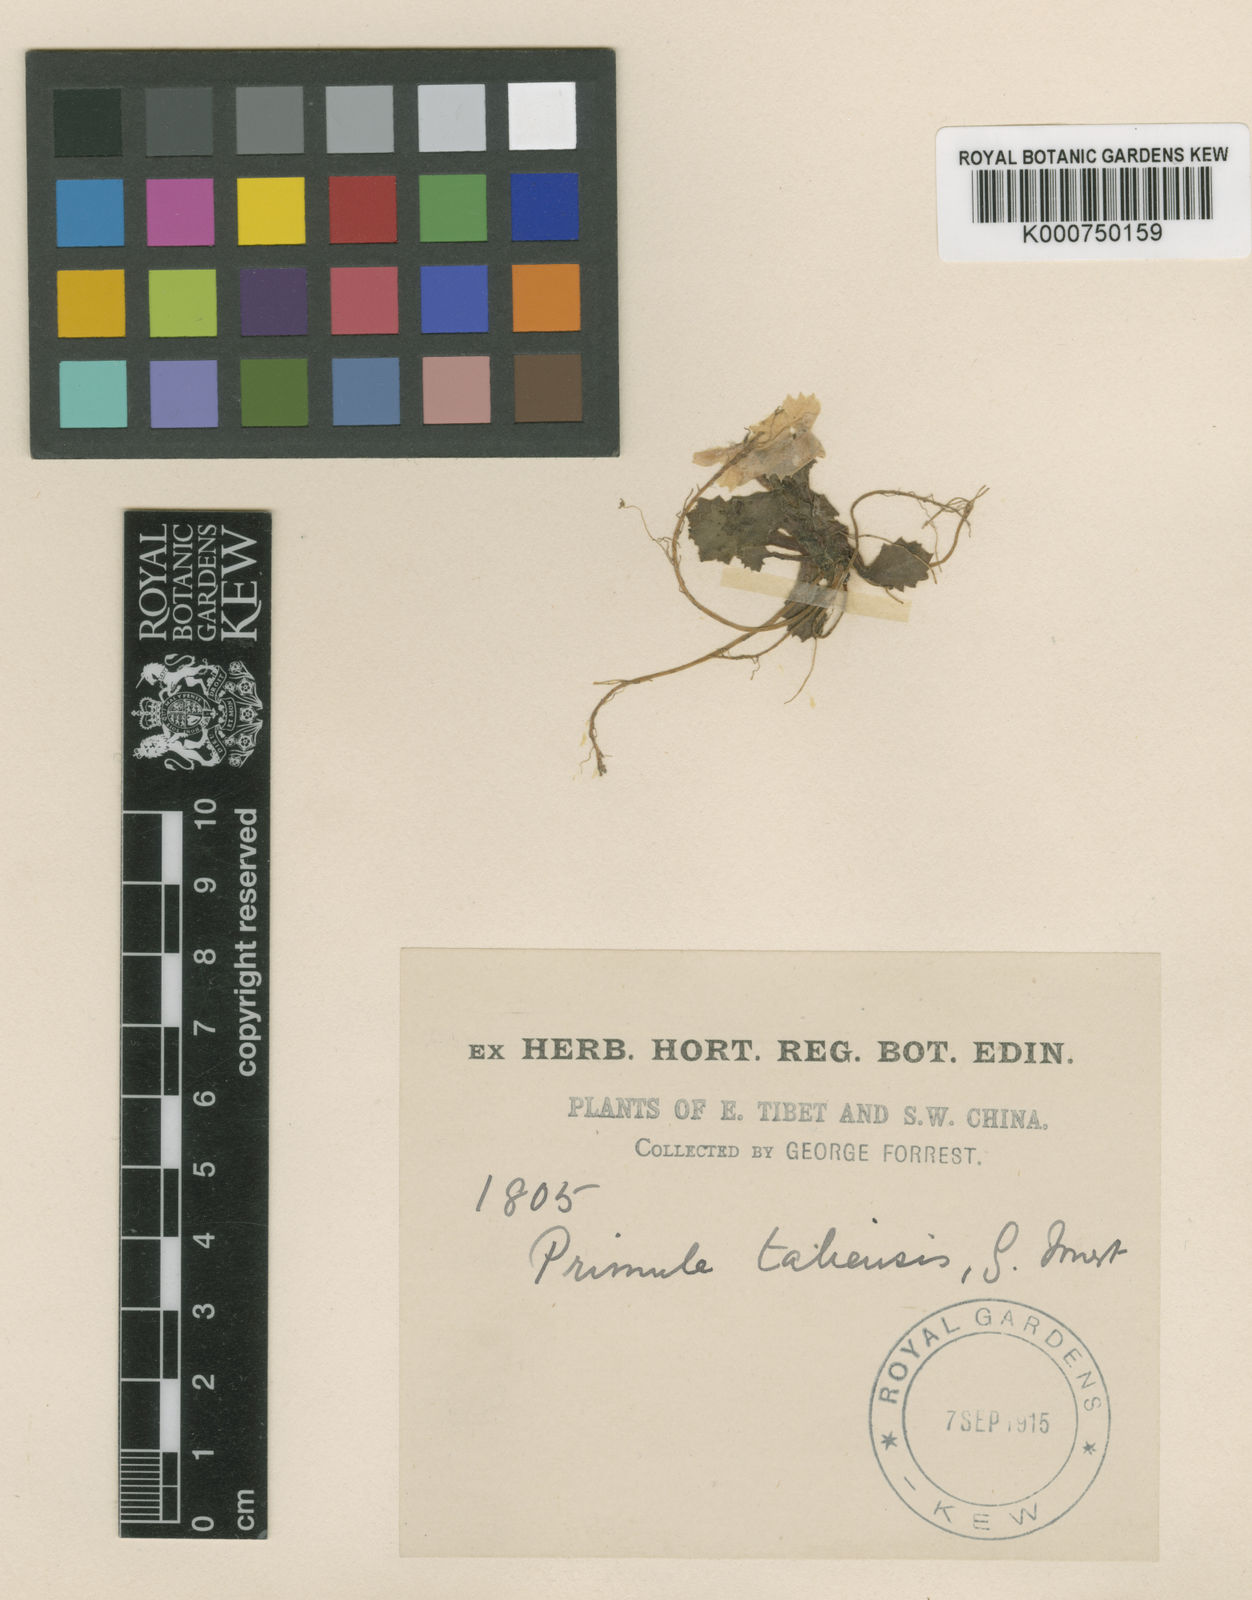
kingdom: Plantae
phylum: Tracheophyta
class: Magnoliopsida
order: Ericales
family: Primulaceae
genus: Primula
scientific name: Primula taliensis
